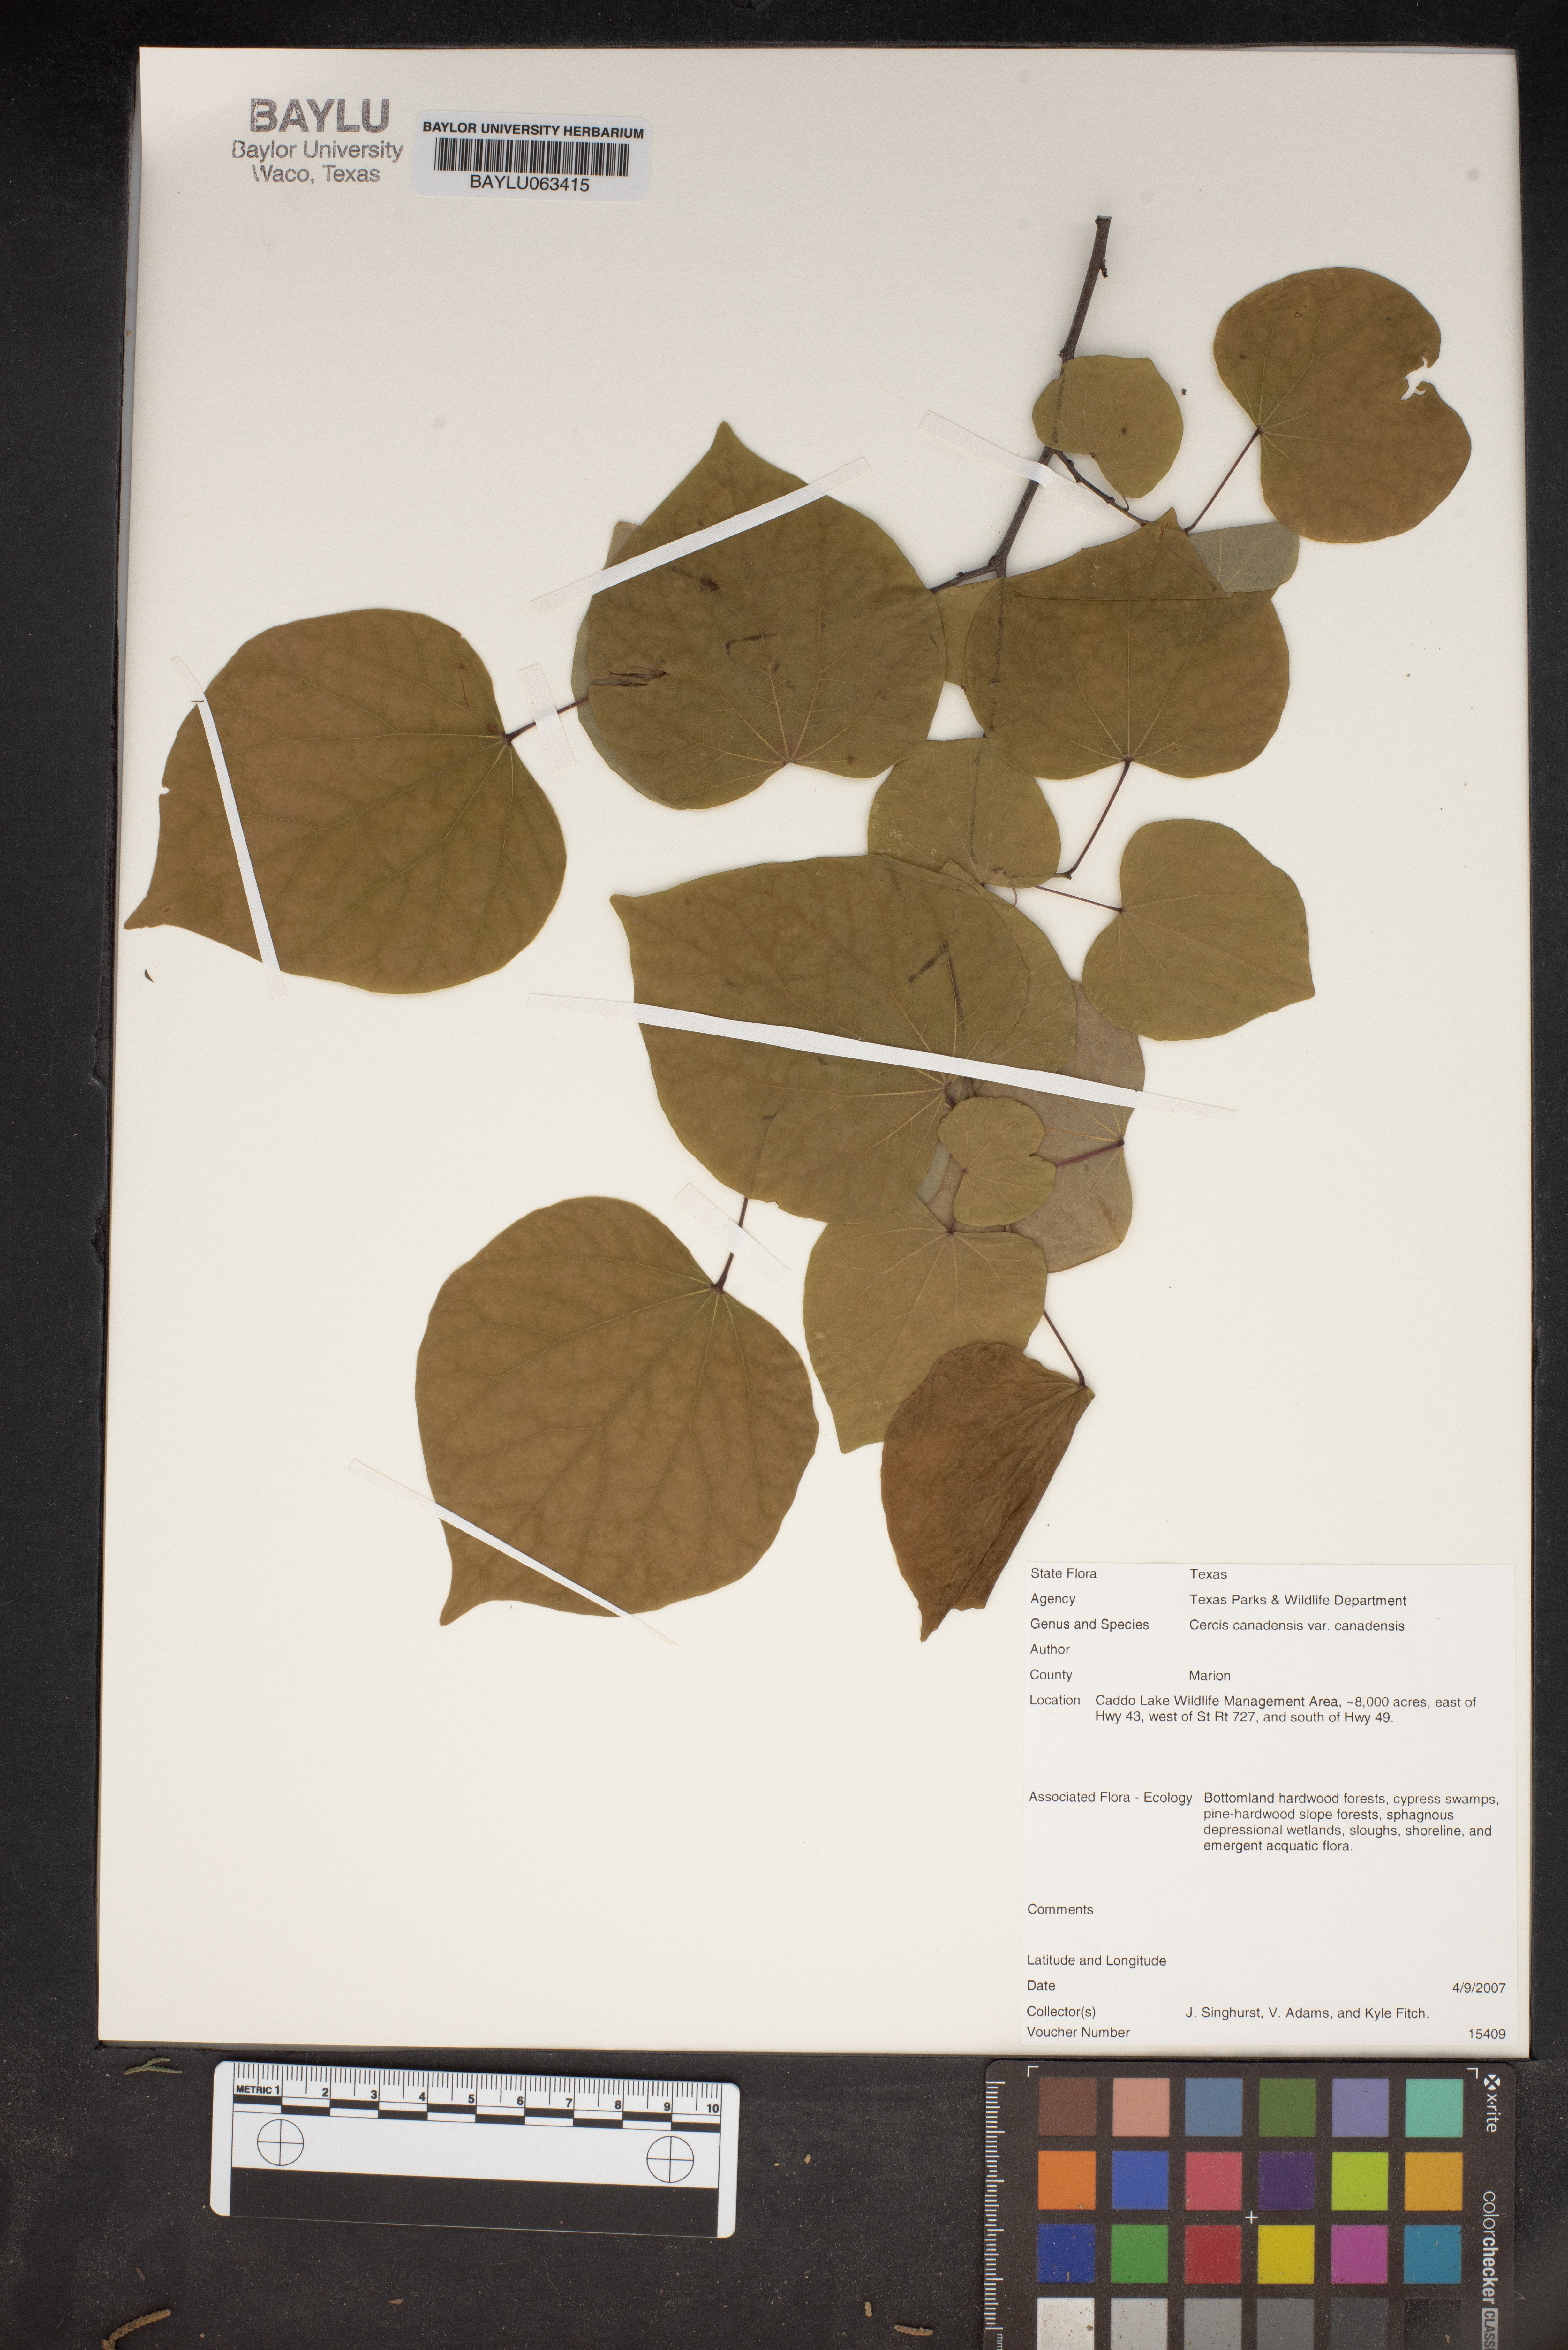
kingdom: Plantae
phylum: Tracheophyta
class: Magnoliopsida
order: Fabales
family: Fabaceae
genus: Cercis
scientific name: Cercis canadensis
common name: Eastern redbud
